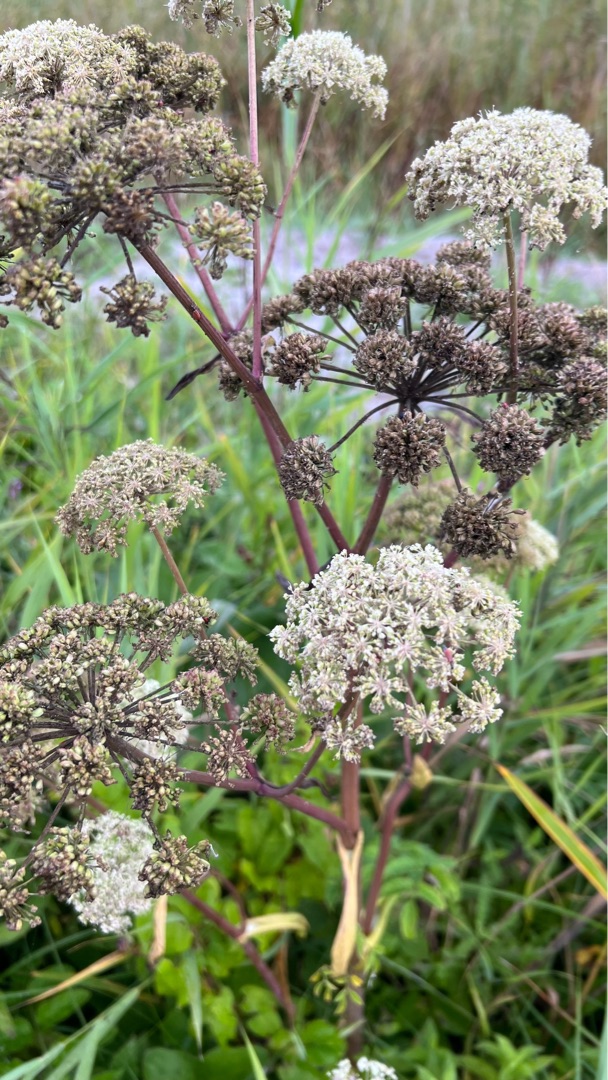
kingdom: Plantae
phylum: Tracheophyta
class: Magnoliopsida
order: Apiales
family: Apiaceae
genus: Angelica
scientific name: Angelica sylvestris
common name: Angelik
